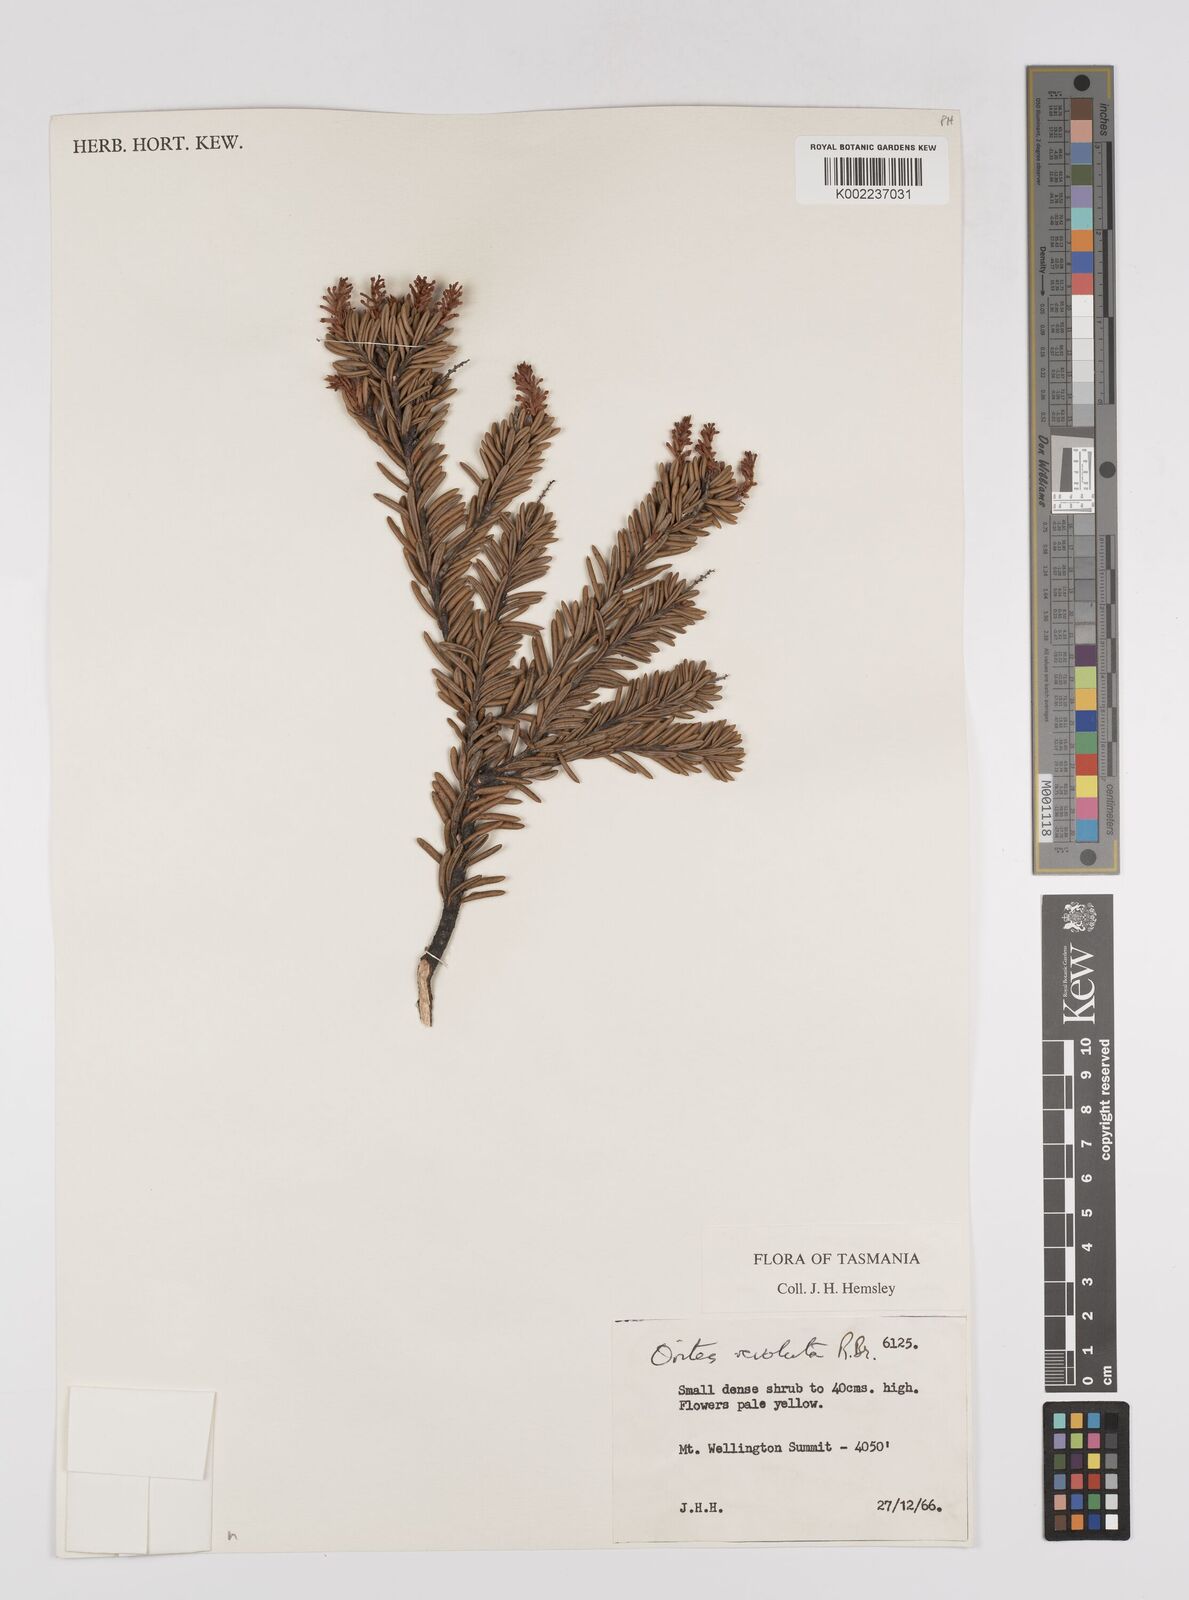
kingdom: Plantae
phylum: Tracheophyta
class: Magnoliopsida
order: Proteales
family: Proteaceae
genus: Orites
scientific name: Orites revolutus
